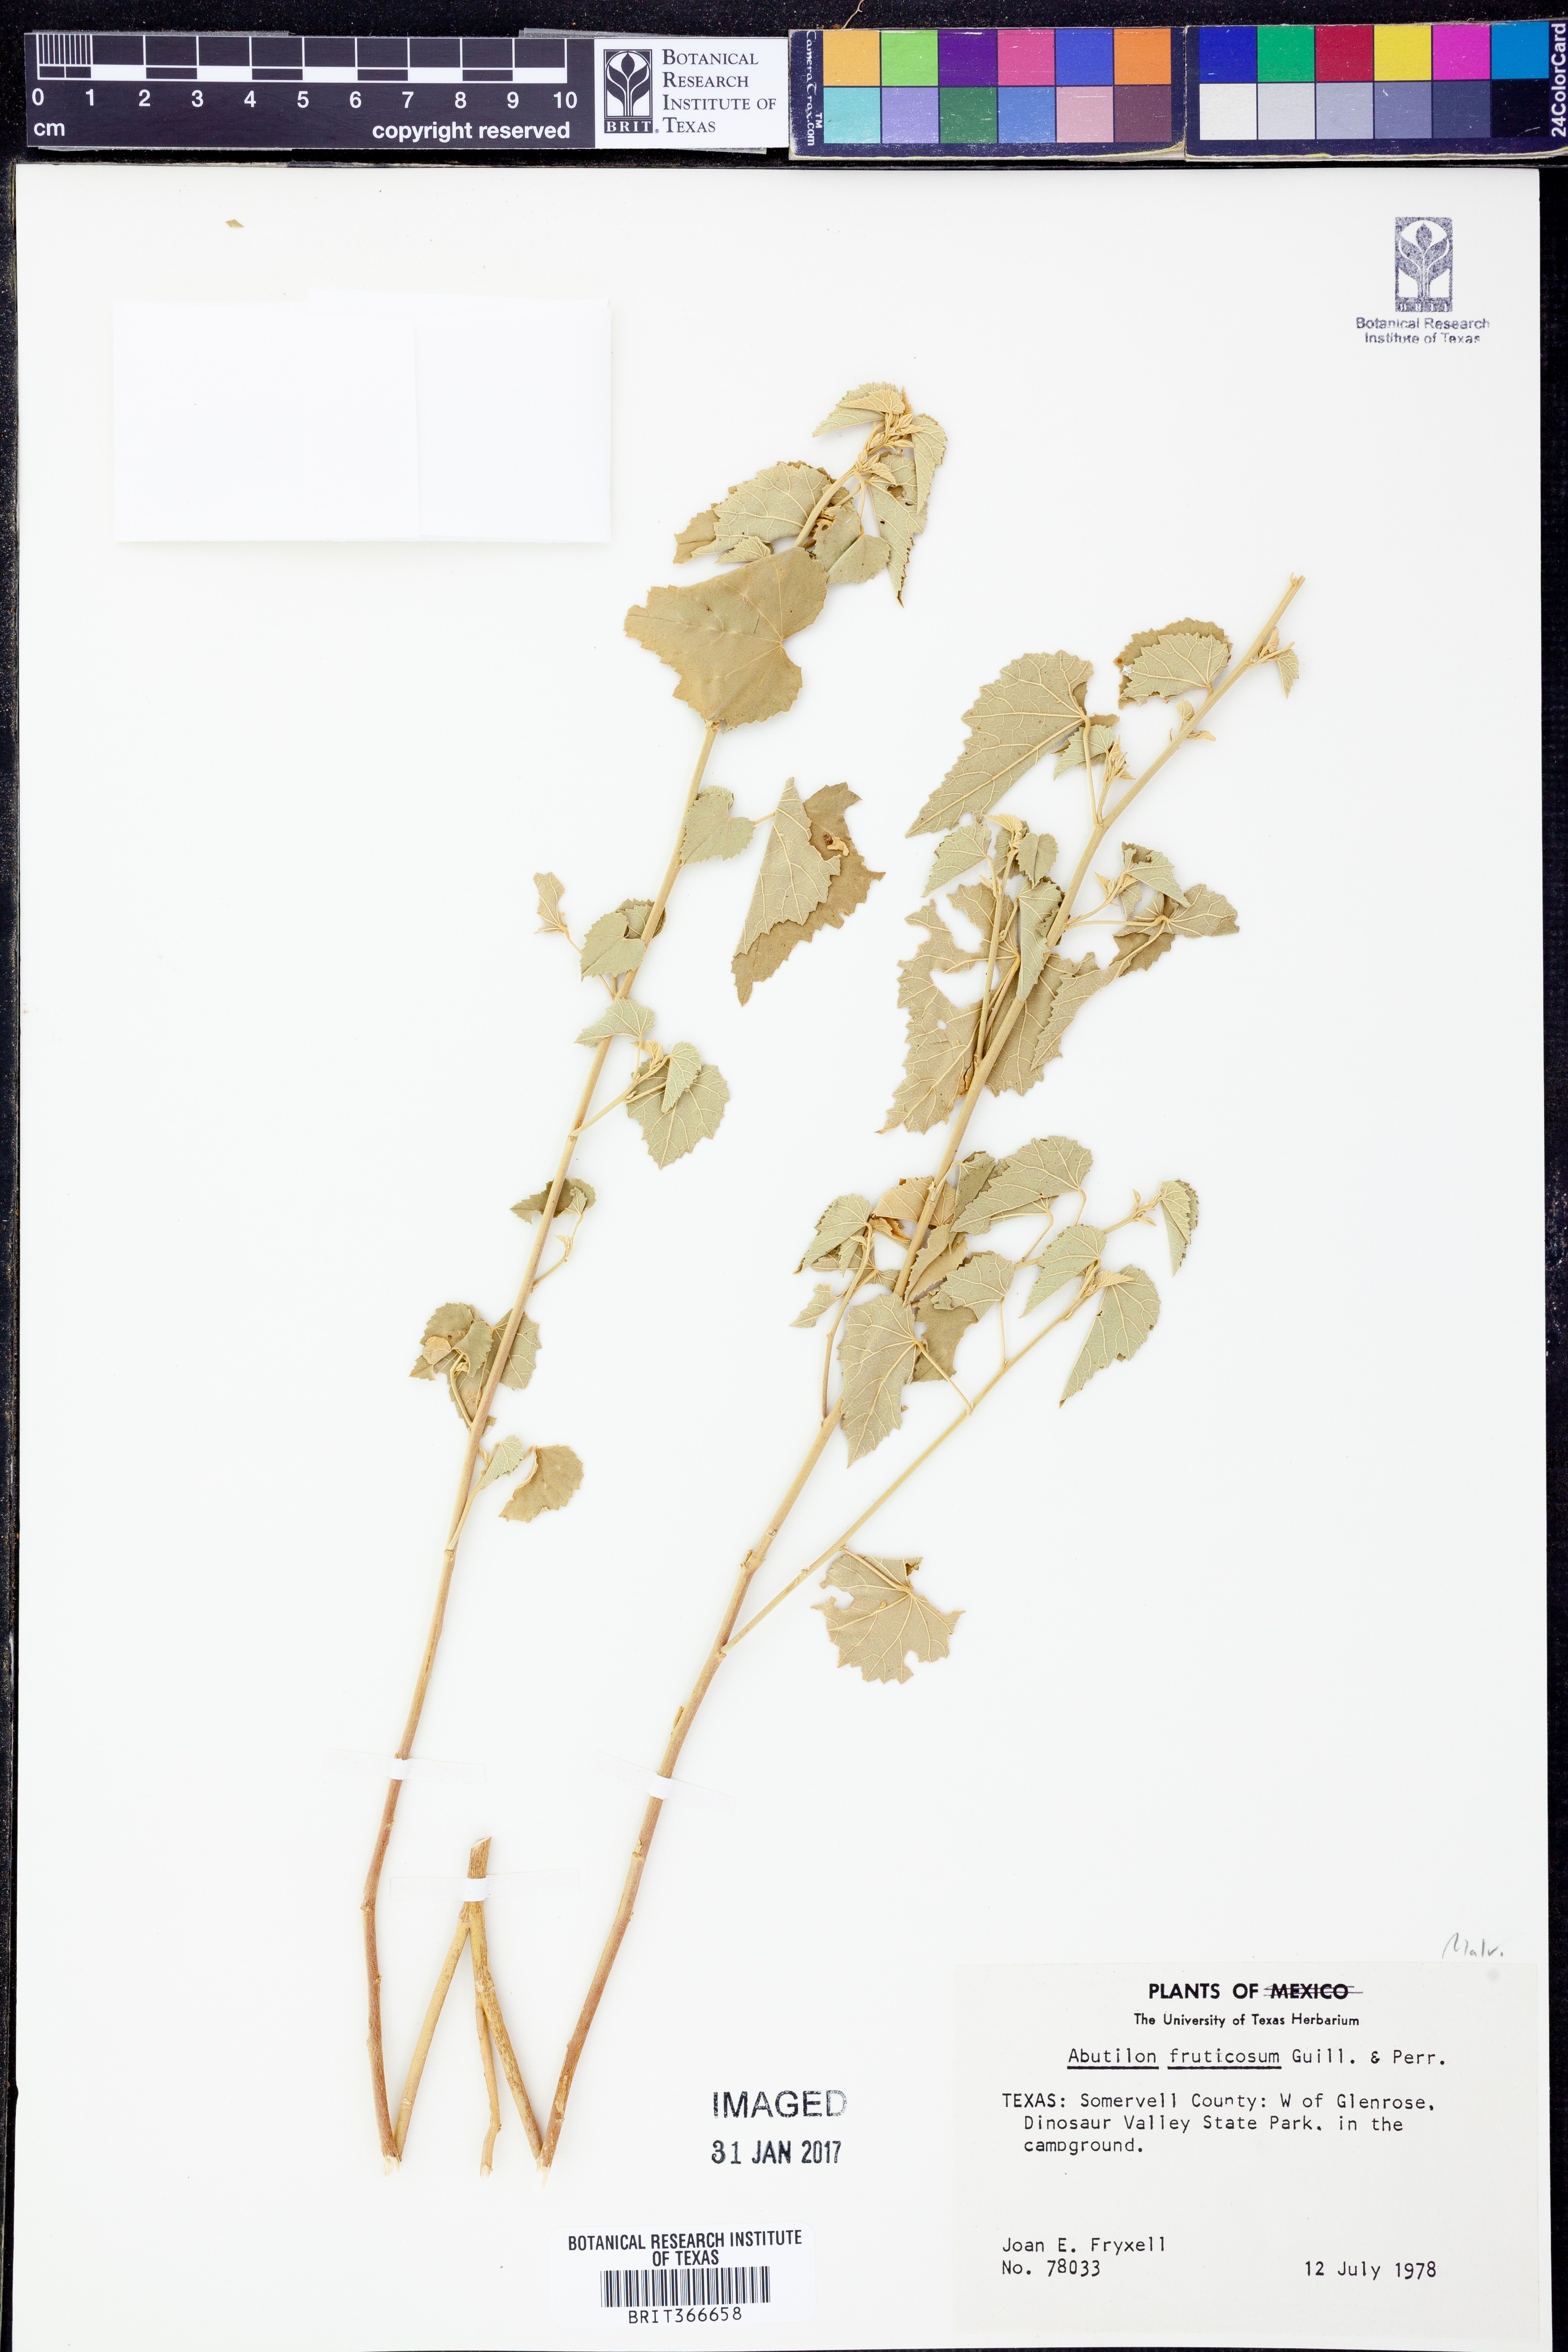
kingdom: Plantae
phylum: Tracheophyta
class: Magnoliopsida
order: Malvales
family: Malvaceae
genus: Abutilon
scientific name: Abutilon fruticosum
